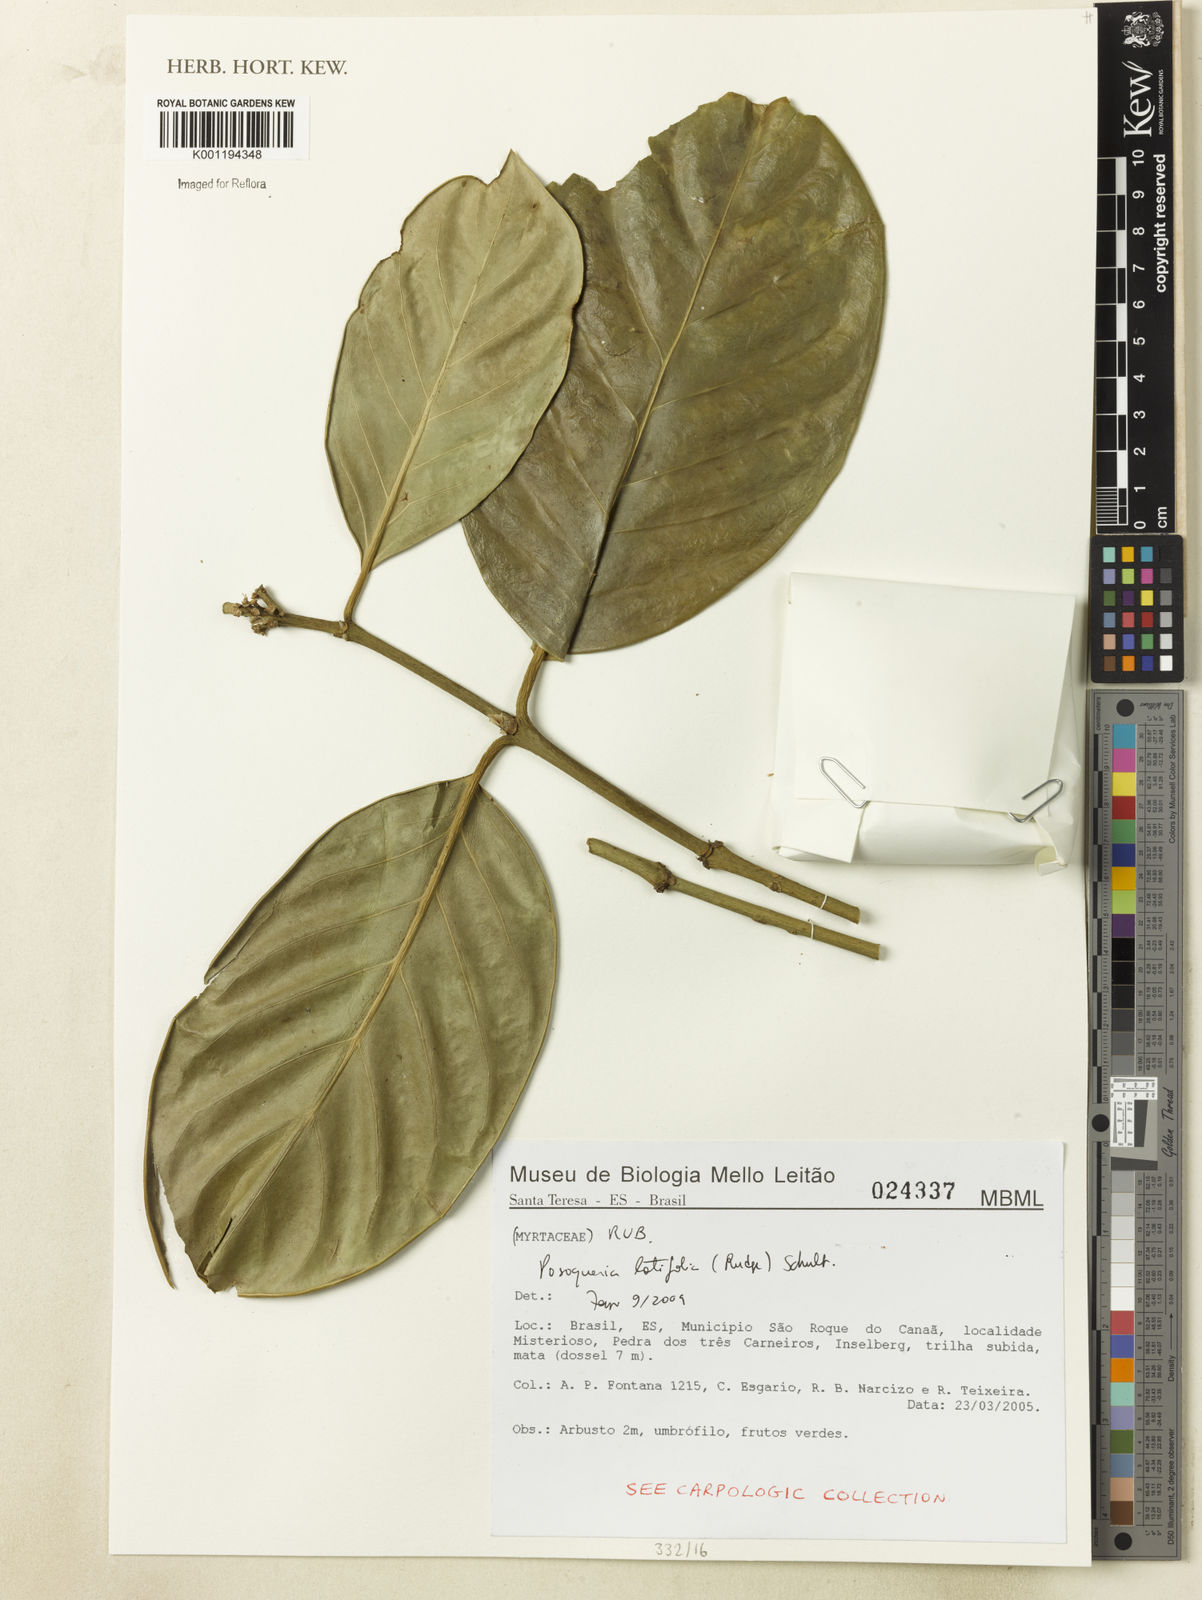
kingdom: Plantae
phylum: Tracheophyta
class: Magnoliopsida
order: Gentianales
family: Rubiaceae
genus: Posoqueria
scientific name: Posoqueria latifolia
